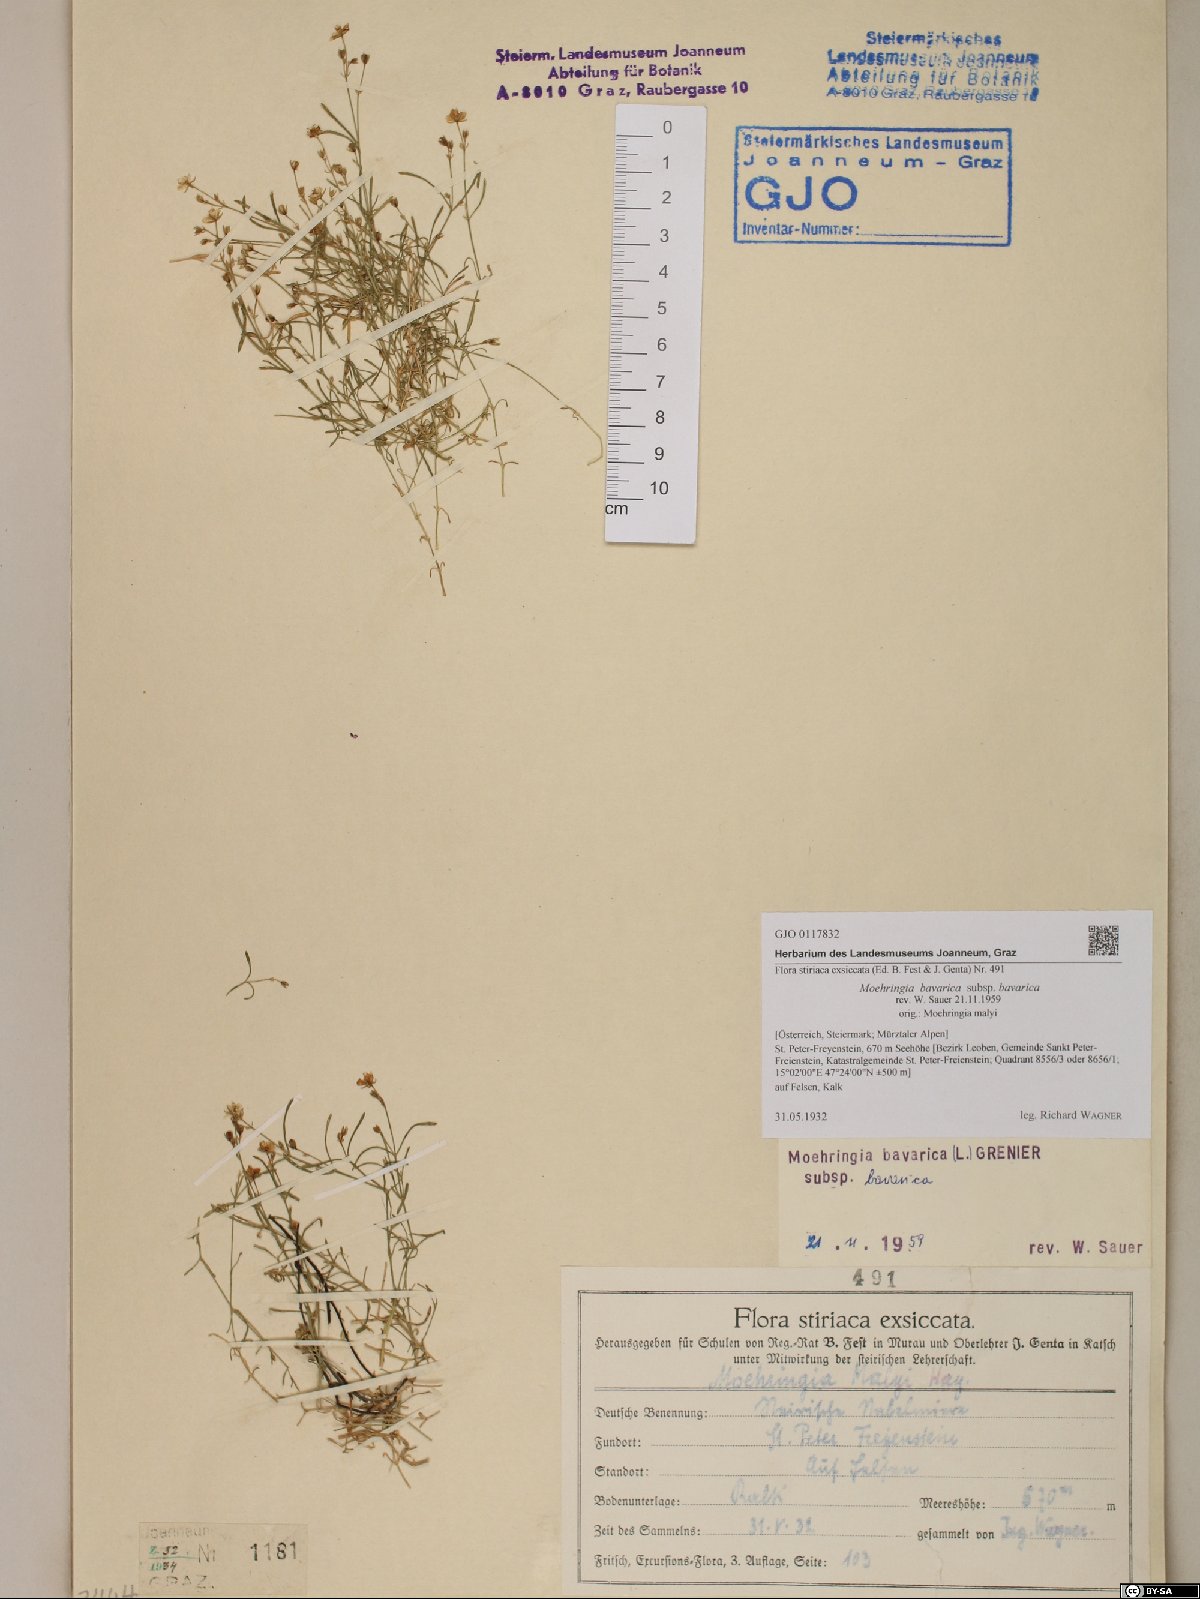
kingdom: Plantae
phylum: Tracheophyta
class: Magnoliopsida
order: Caryophyllales
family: Caryophyllaceae
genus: Moehringia
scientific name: Moehringia bavarica
